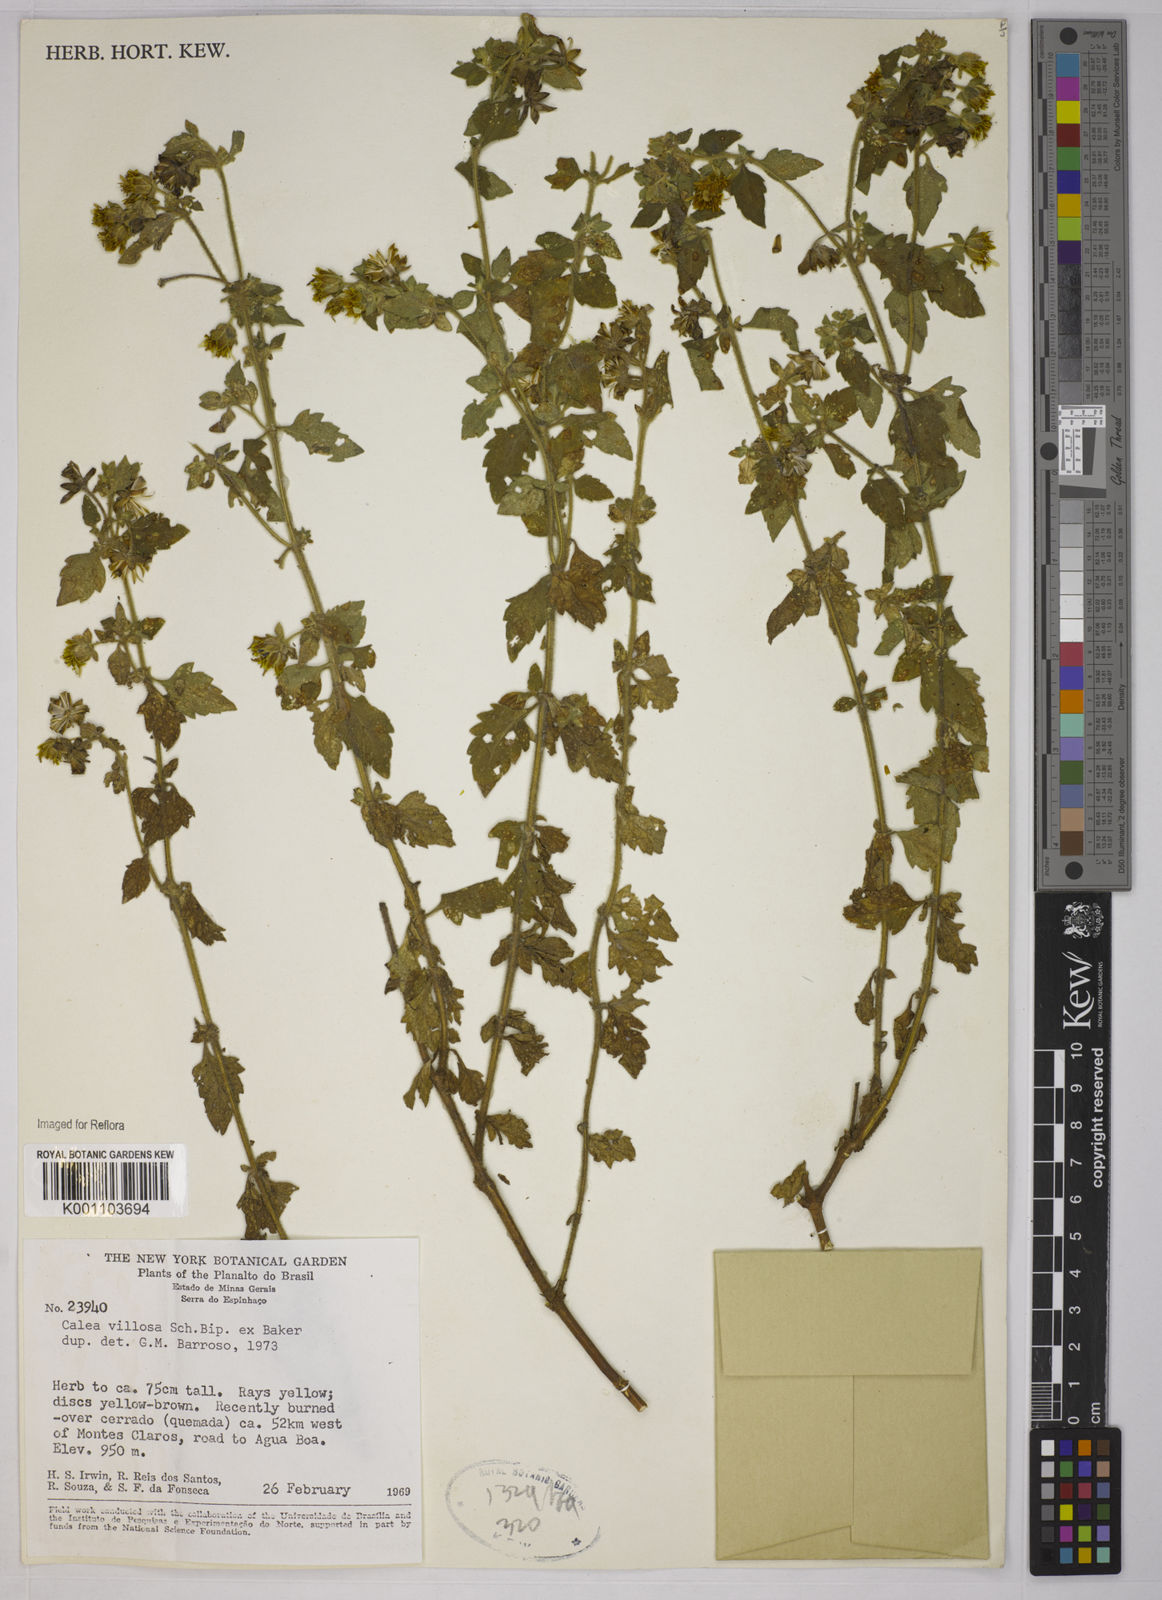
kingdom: Plantae
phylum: Tracheophyta
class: Magnoliopsida
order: Asterales
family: Asteraceae
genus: Calea
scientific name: Calea villosa
